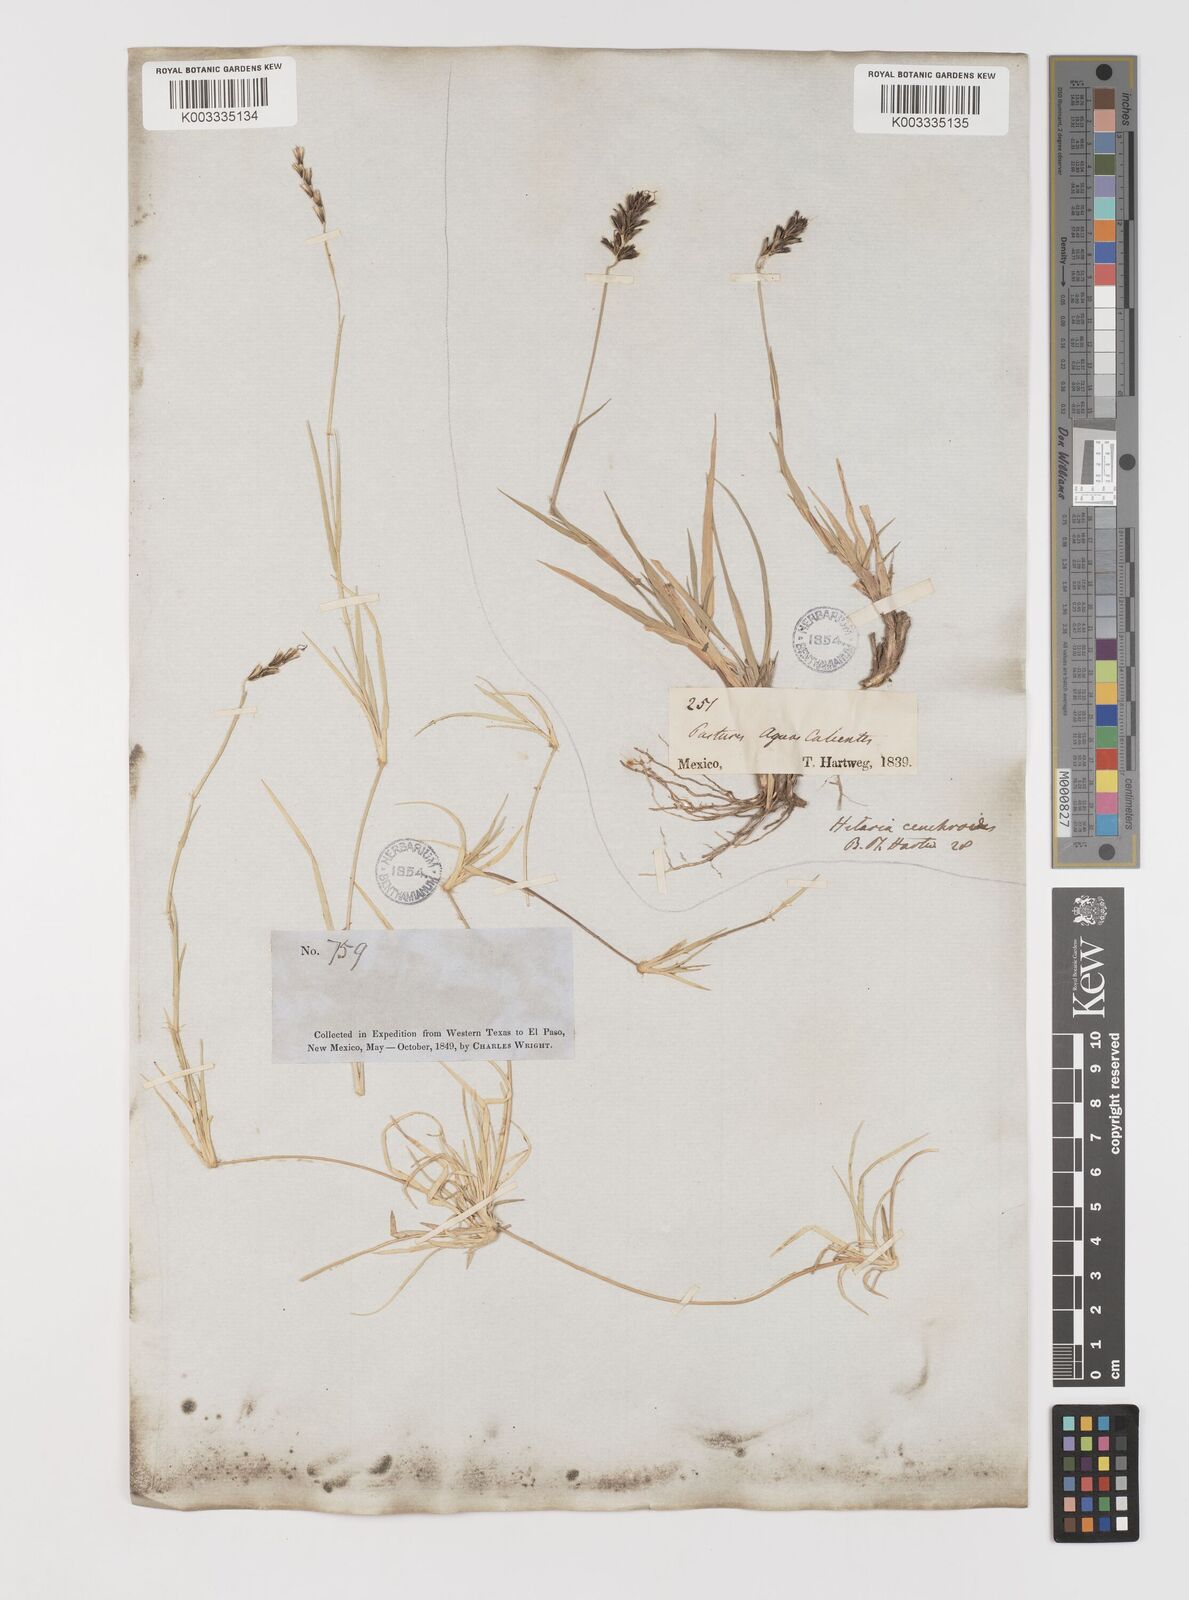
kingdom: Plantae
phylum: Tracheophyta
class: Liliopsida
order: Poales
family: Poaceae
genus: Hilaria
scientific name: Hilaria cenchroides
